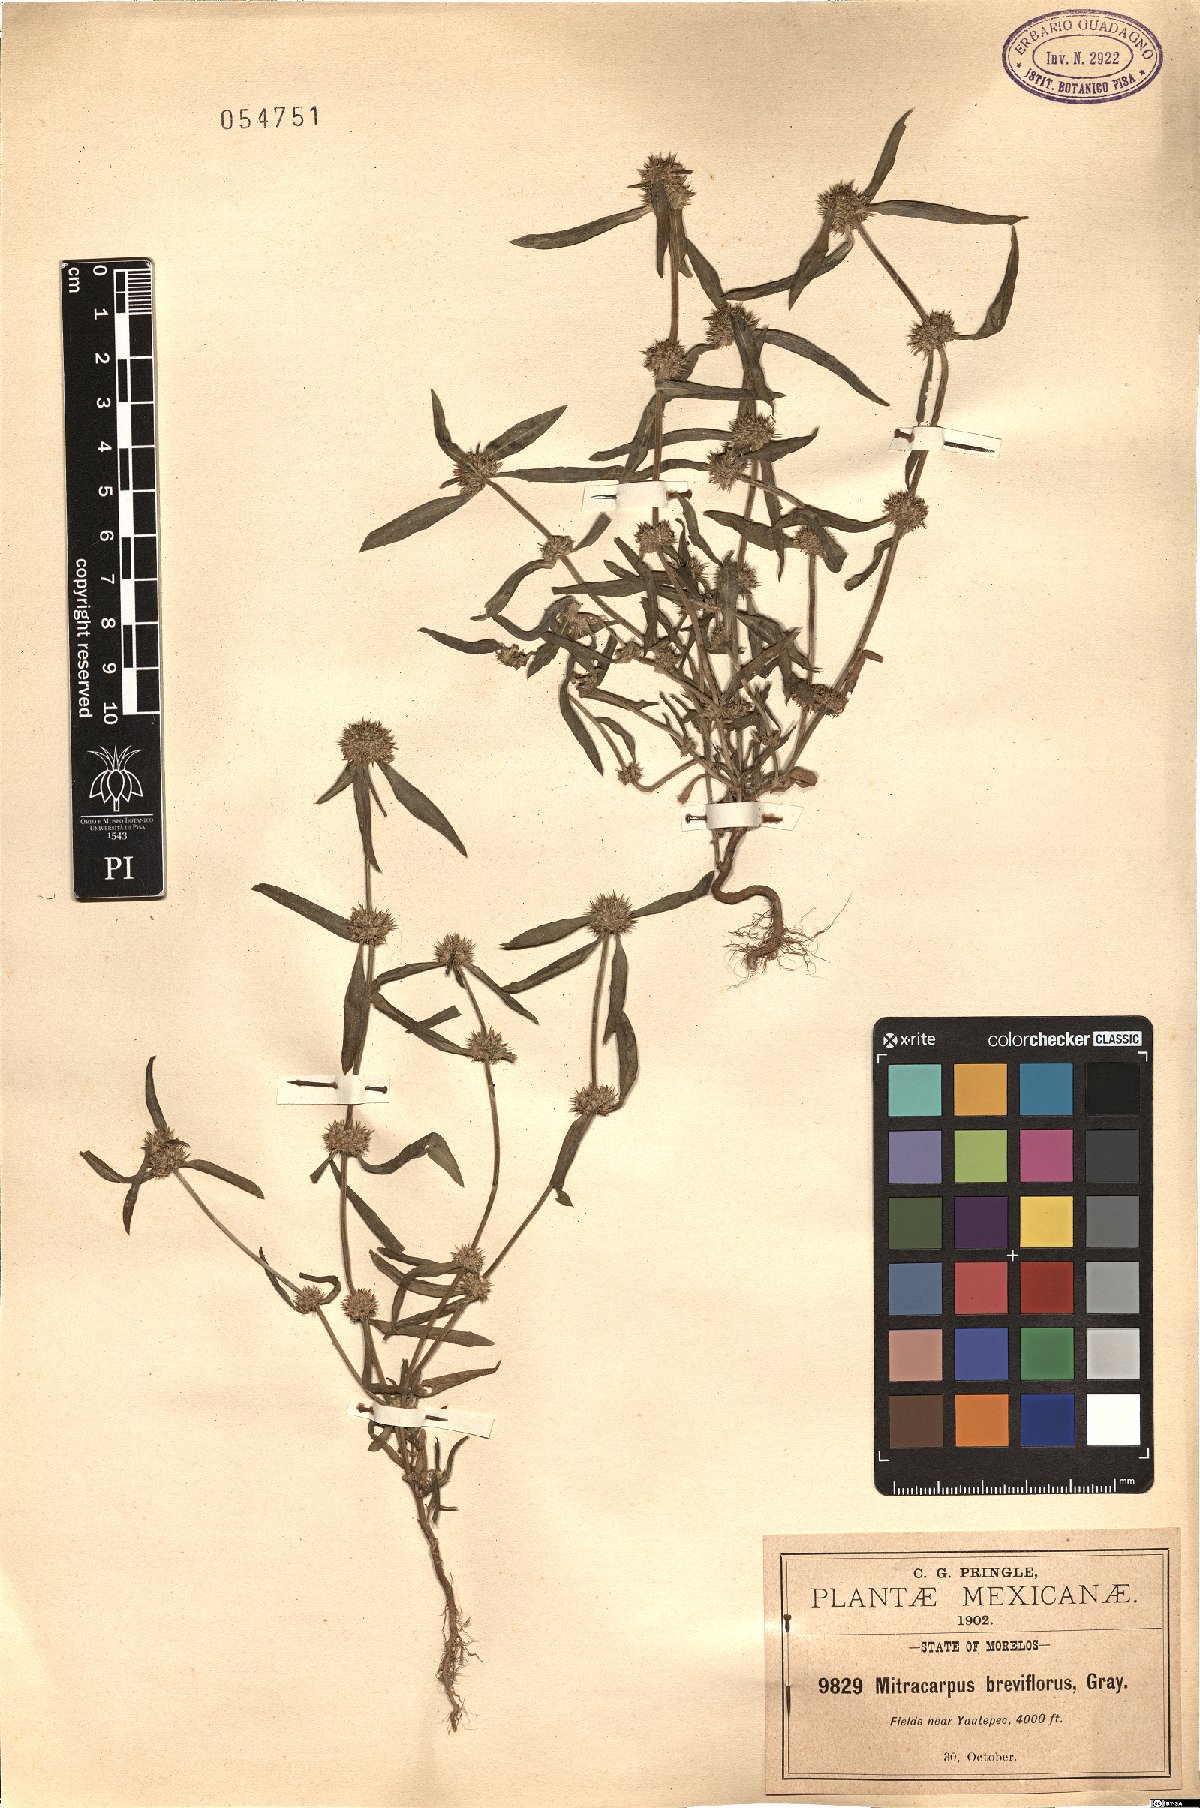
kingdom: Plantae
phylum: Tracheophyta
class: Magnoliopsida
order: Gentianales
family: Rubiaceae
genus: Mitracarpus
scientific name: Mitracarpus breviflorus
